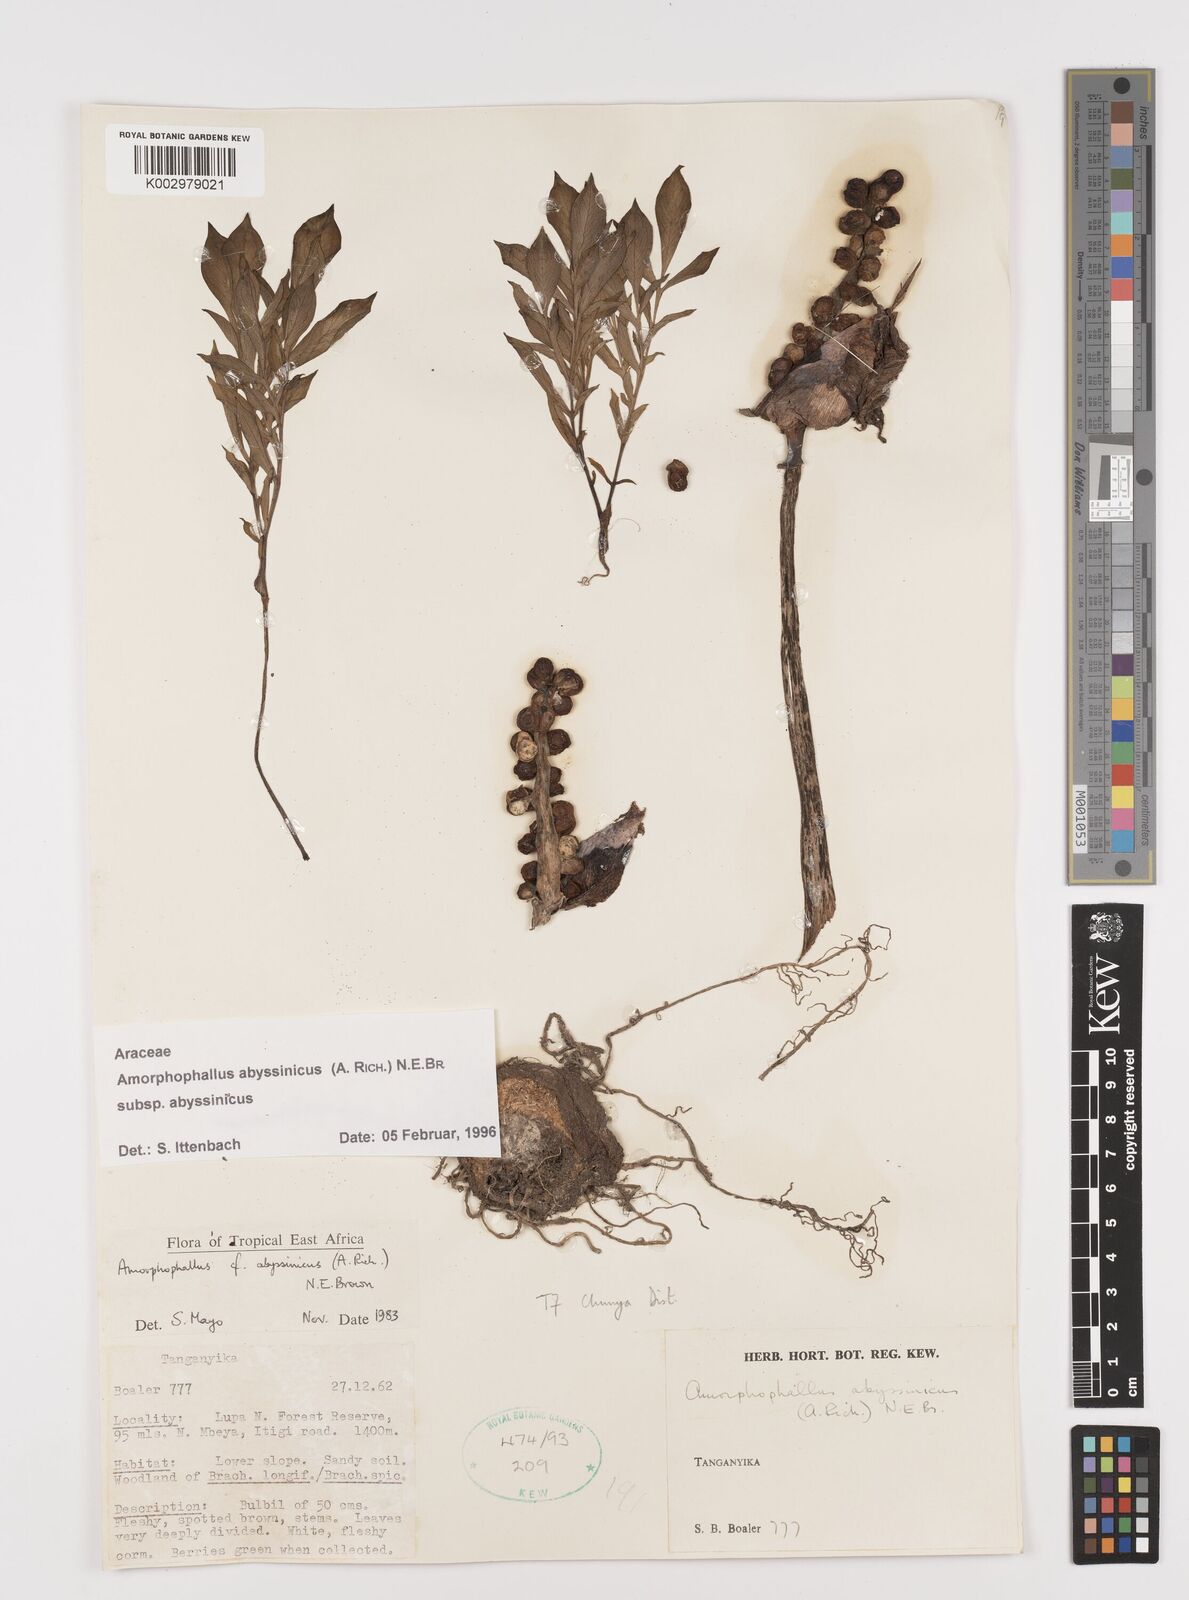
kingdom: Plantae
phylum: Tracheophyta
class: Liliopsida
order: Alismatales
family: Araceae
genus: Amorphophallus
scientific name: Amorphophallus abyssinicus
